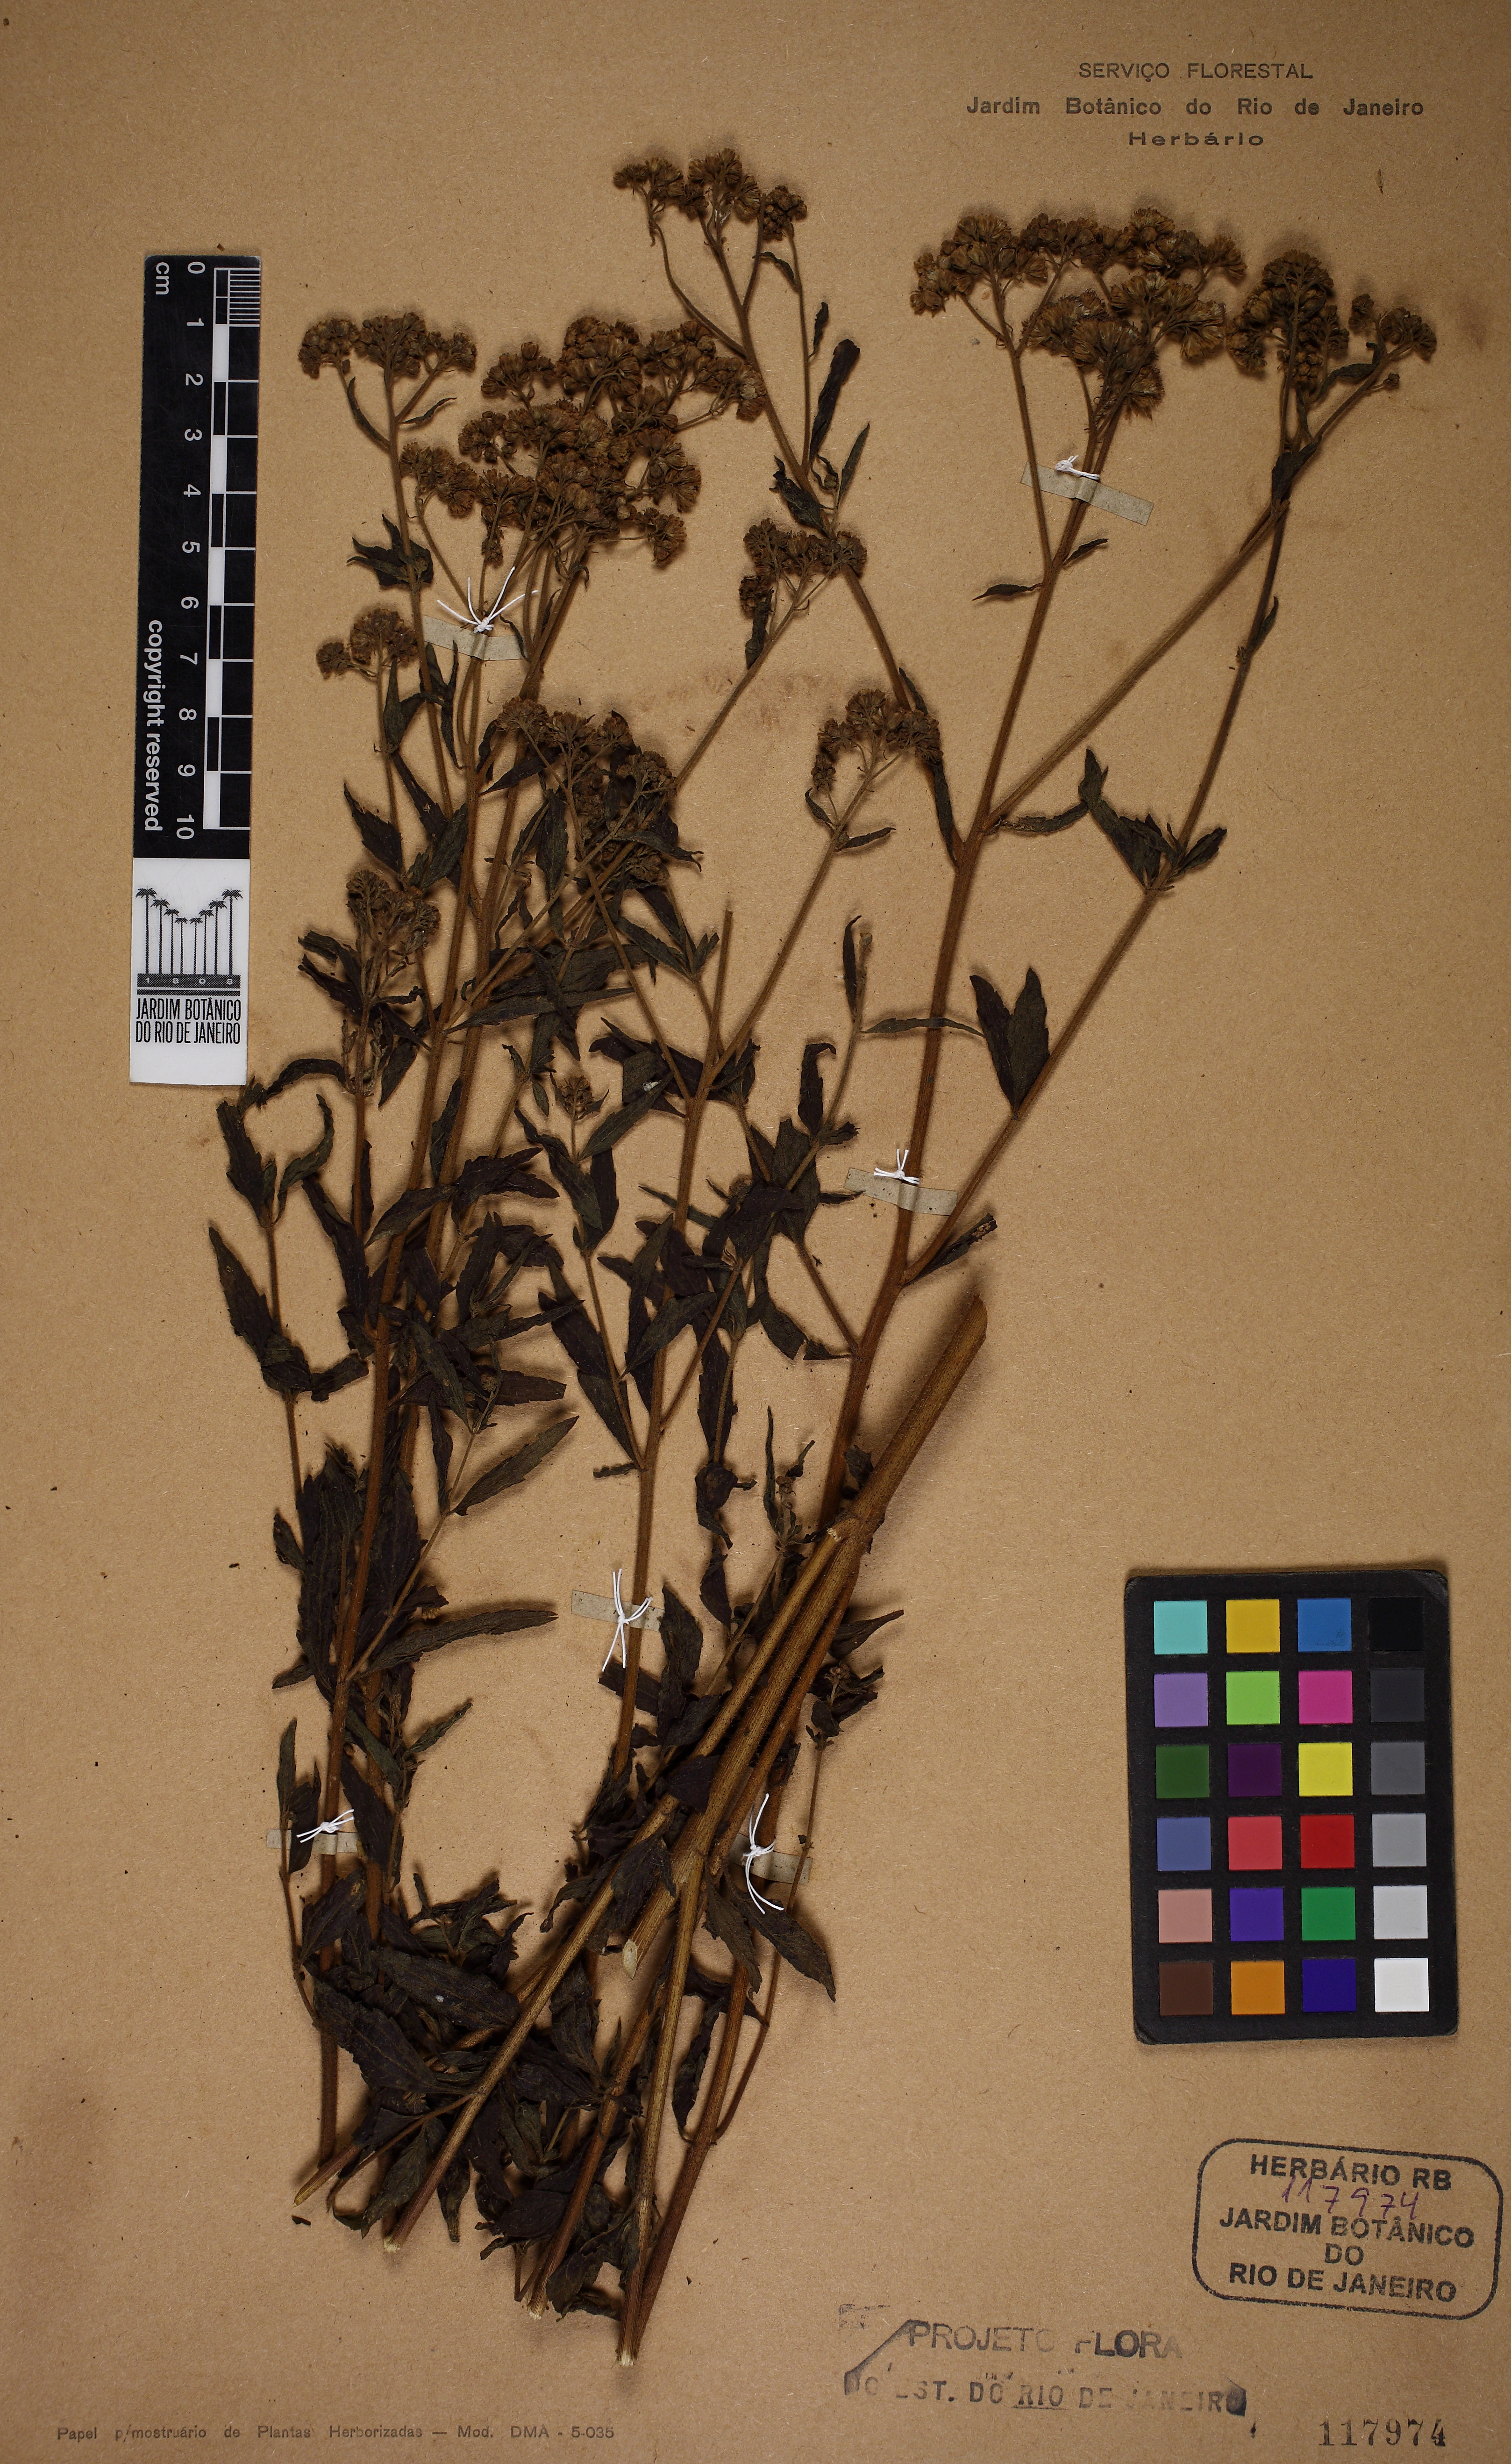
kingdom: Plantae
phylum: Tracheophyta
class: Magnoliopsida
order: Asterales
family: Asteraceae
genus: Austroeupatorium
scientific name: Austroeupatorium laetevirens
